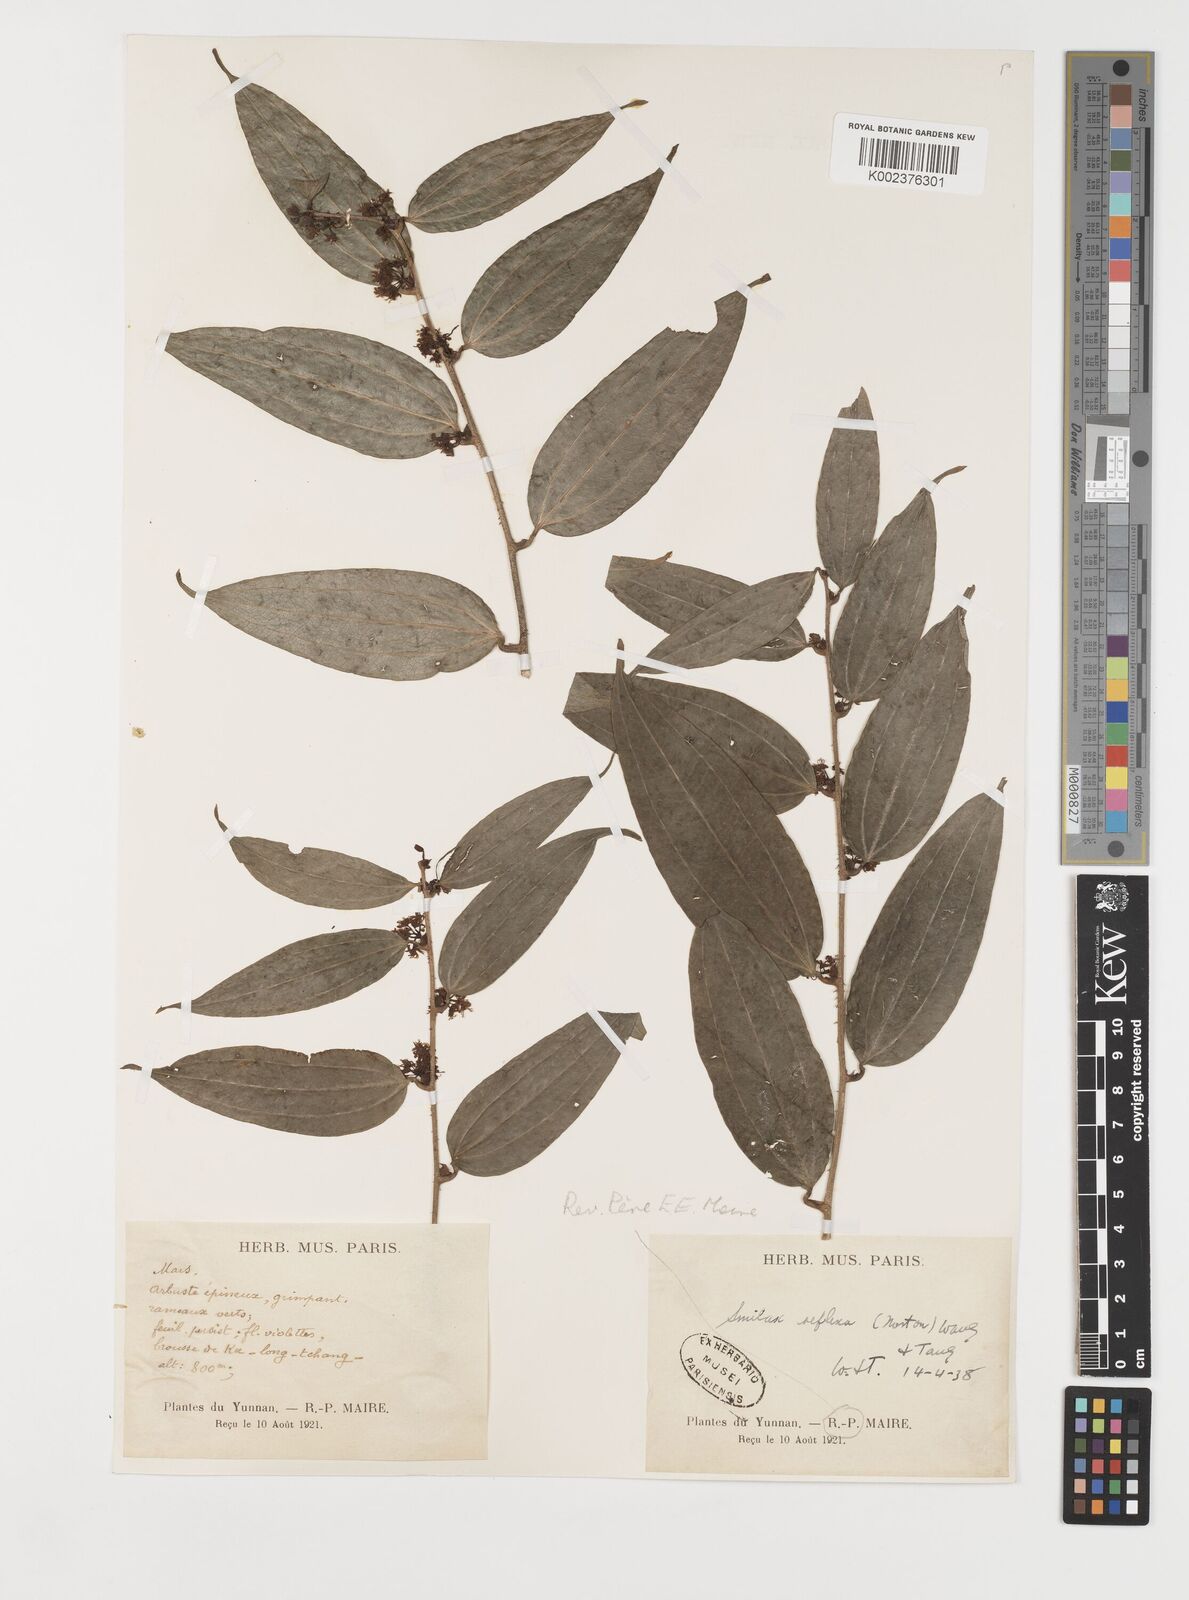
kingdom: Plantae
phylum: Tracheophyta
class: Liliopsida
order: Liliales
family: Smilacaceae
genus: Smilax
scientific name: Smilax chapaensis
